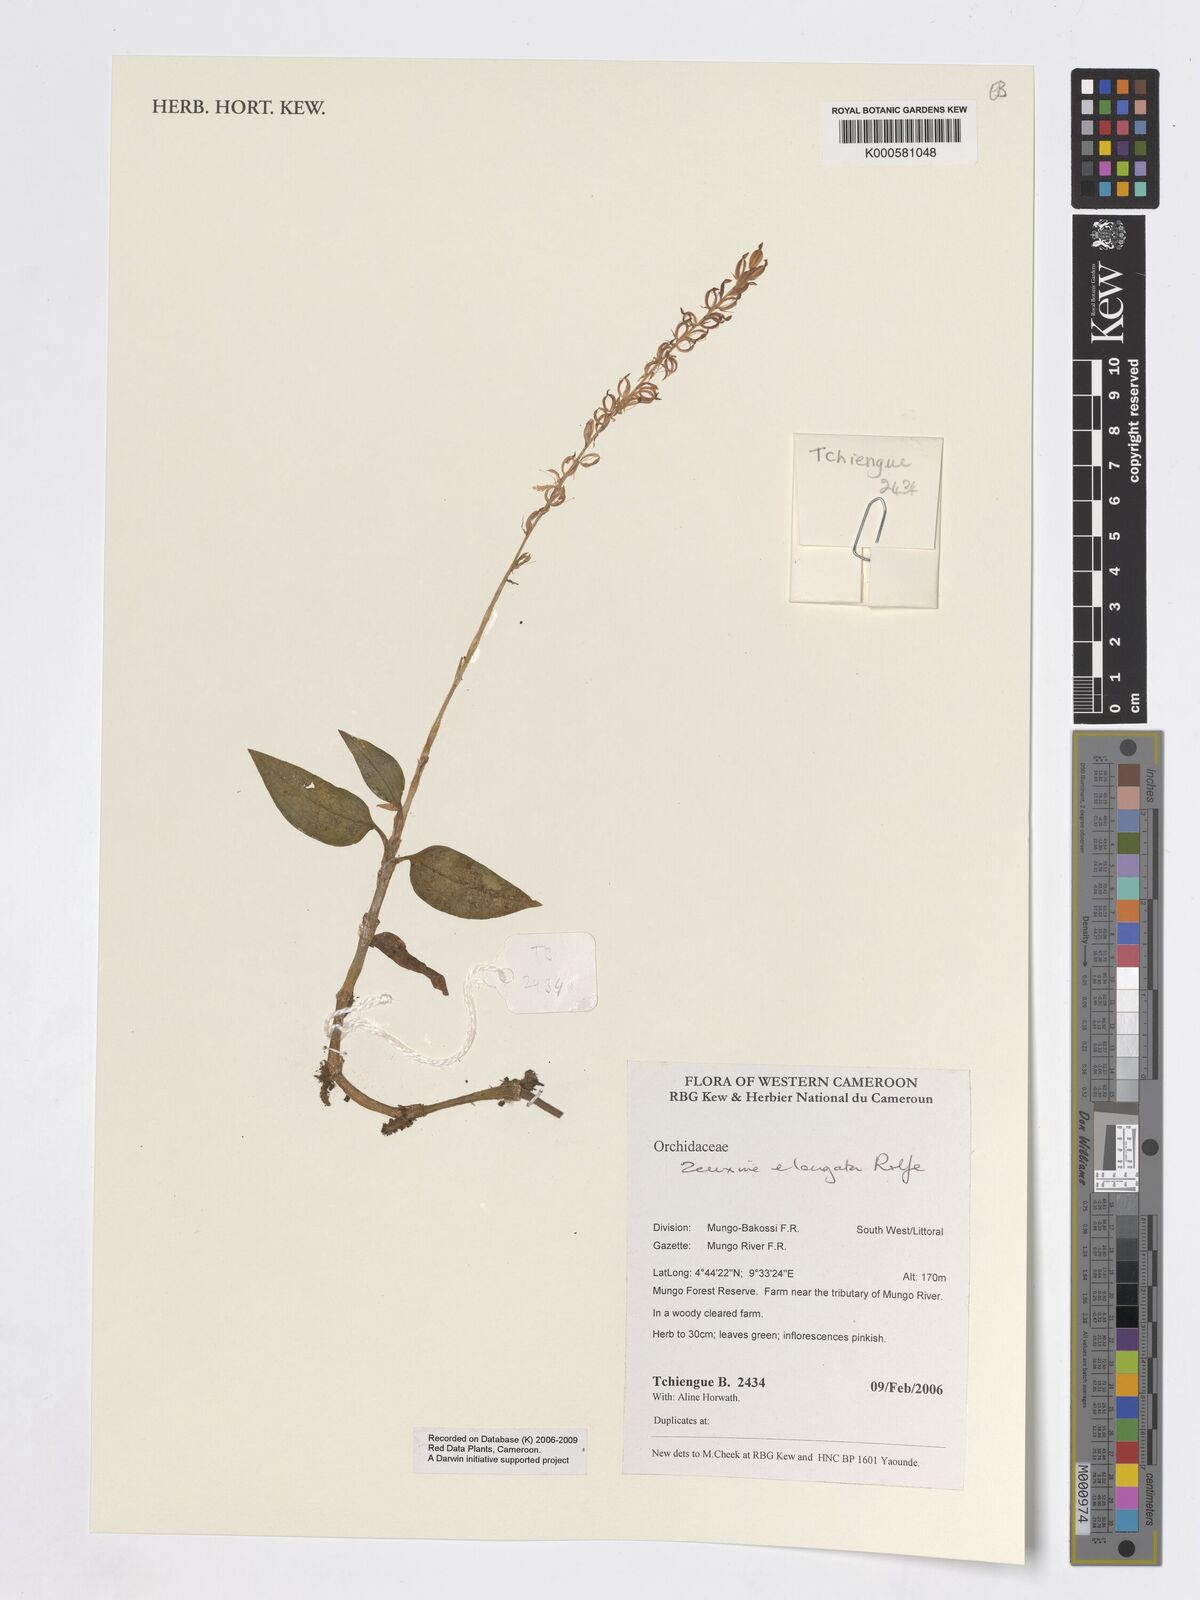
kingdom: Plantae
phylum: Tracheophyta
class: Liliopsida
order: Asparagales
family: Orchidaceae
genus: Zeuxine
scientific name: Zeuxine elongata
